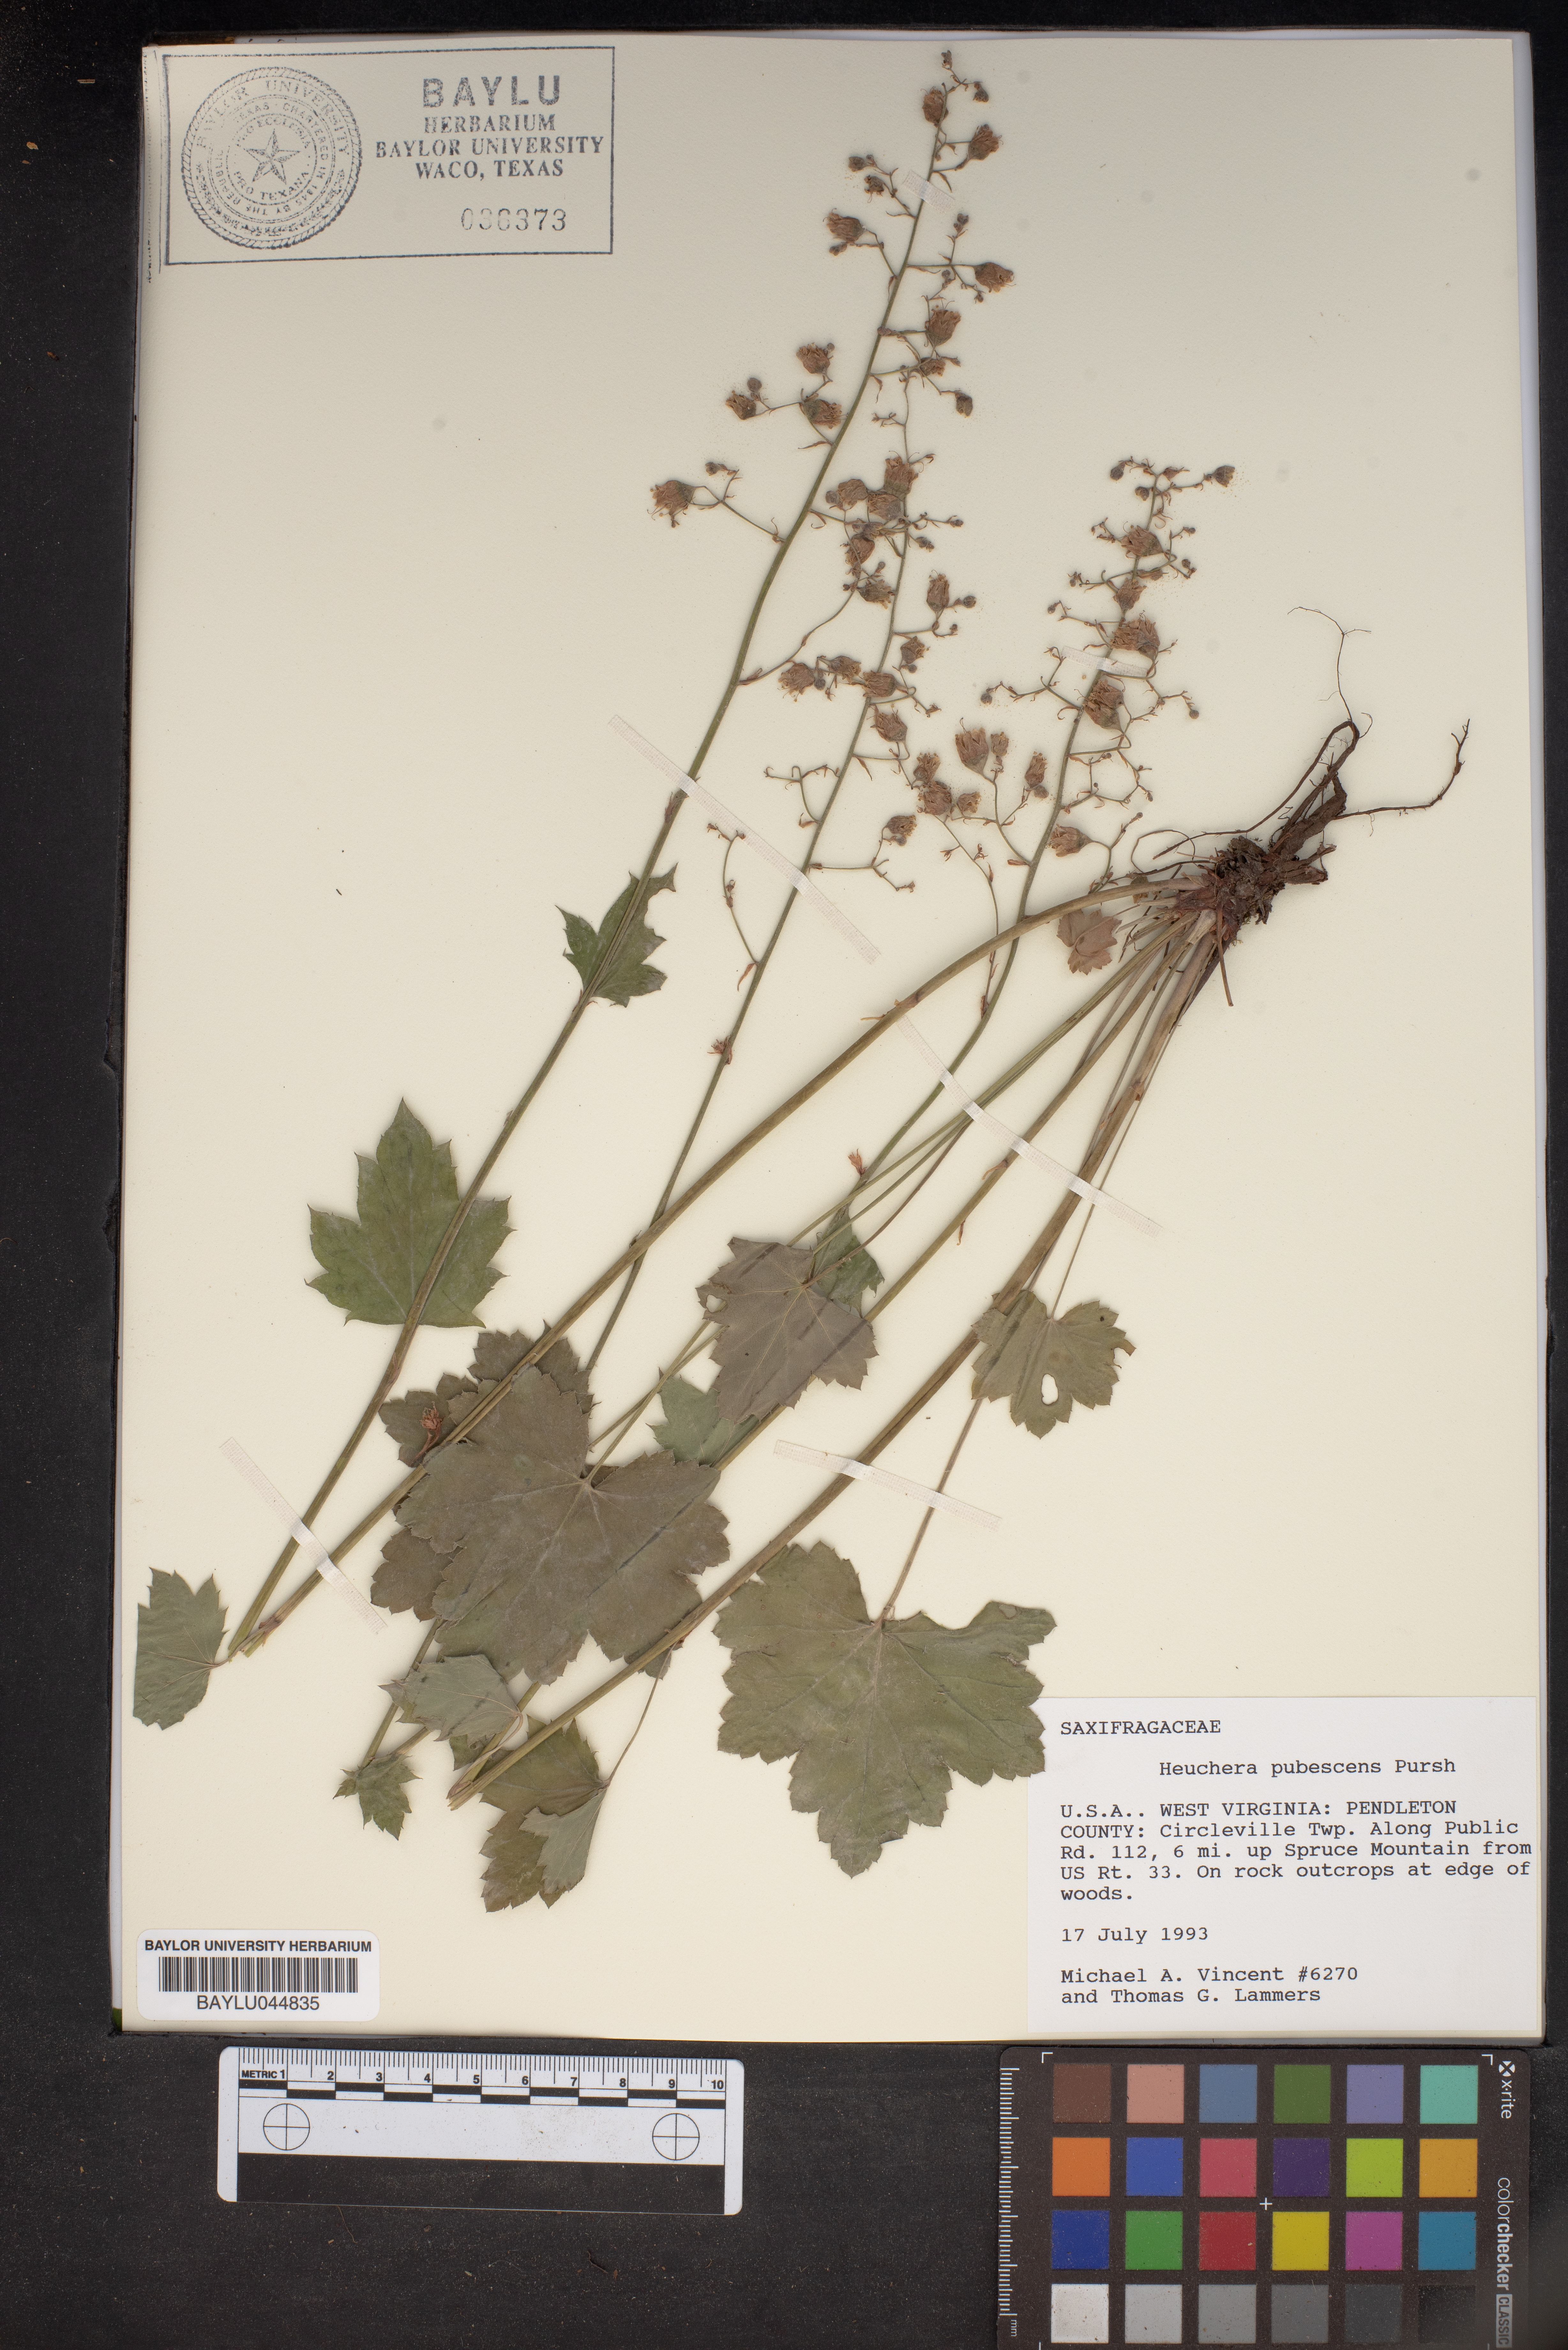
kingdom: Plantae
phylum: Tracheophyta
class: Magnoliopsida
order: Saxifragales
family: Saxifragaceae
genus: Heuchera
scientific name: Heuchera pubescens
